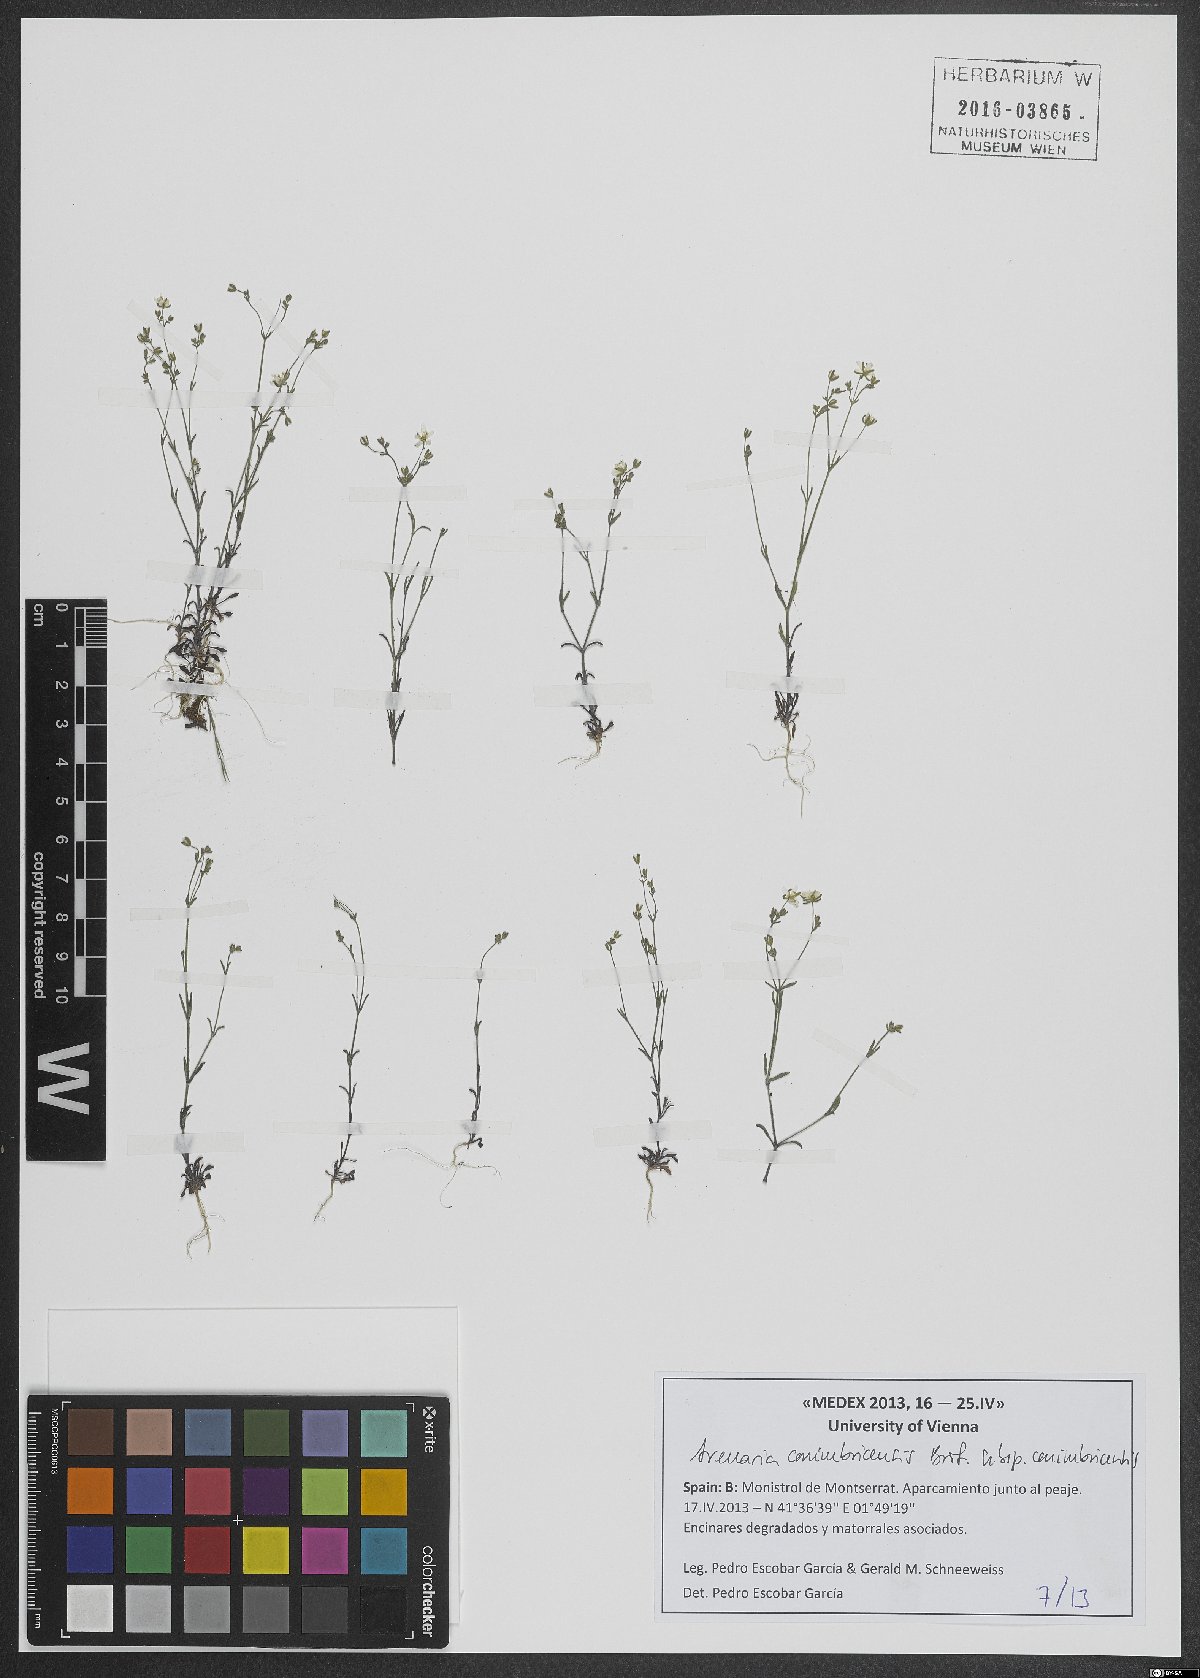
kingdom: Plantae
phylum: Tracheophyta
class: Magnoliopsida
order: Caryophyllales
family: Caryophyllaceae
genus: Arenaria
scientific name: Arenaria conimbricensis
